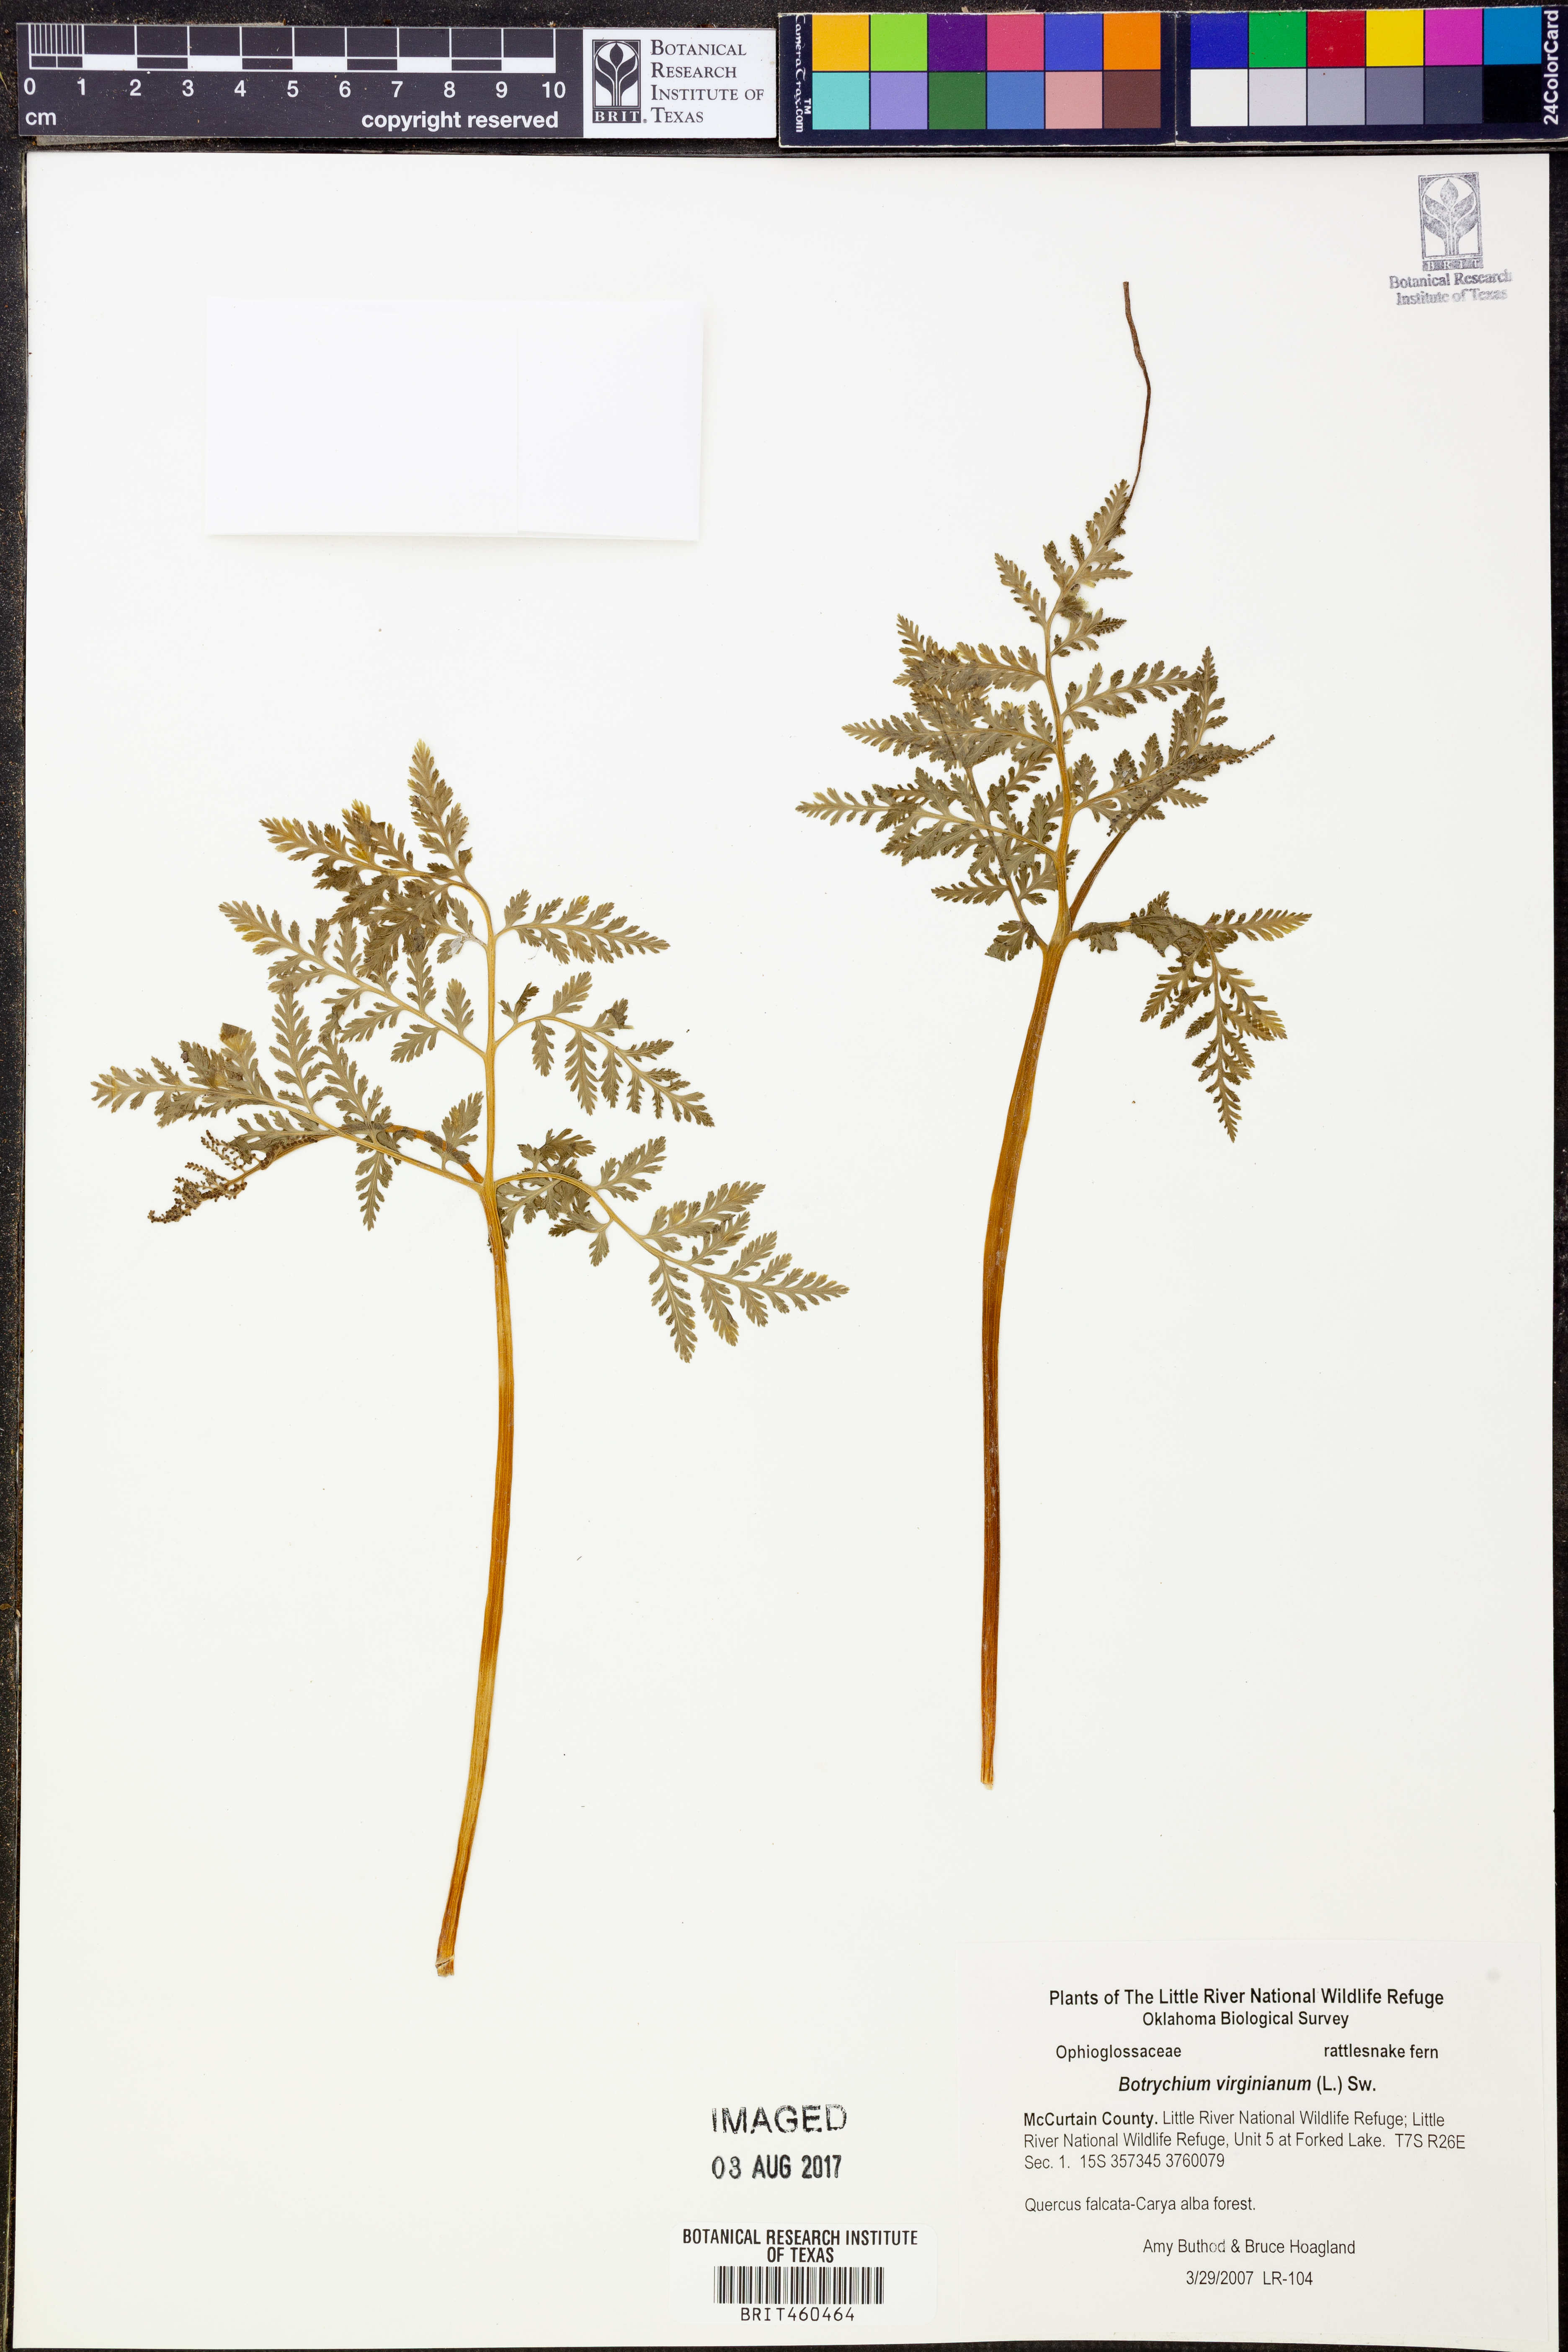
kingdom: Plantae
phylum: Tracheophyta
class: Polypodiopsida
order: Ophioglossales
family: Ophioglossaceae
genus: Botrypus
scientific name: Botrypus virginianus
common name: Common grapefern
